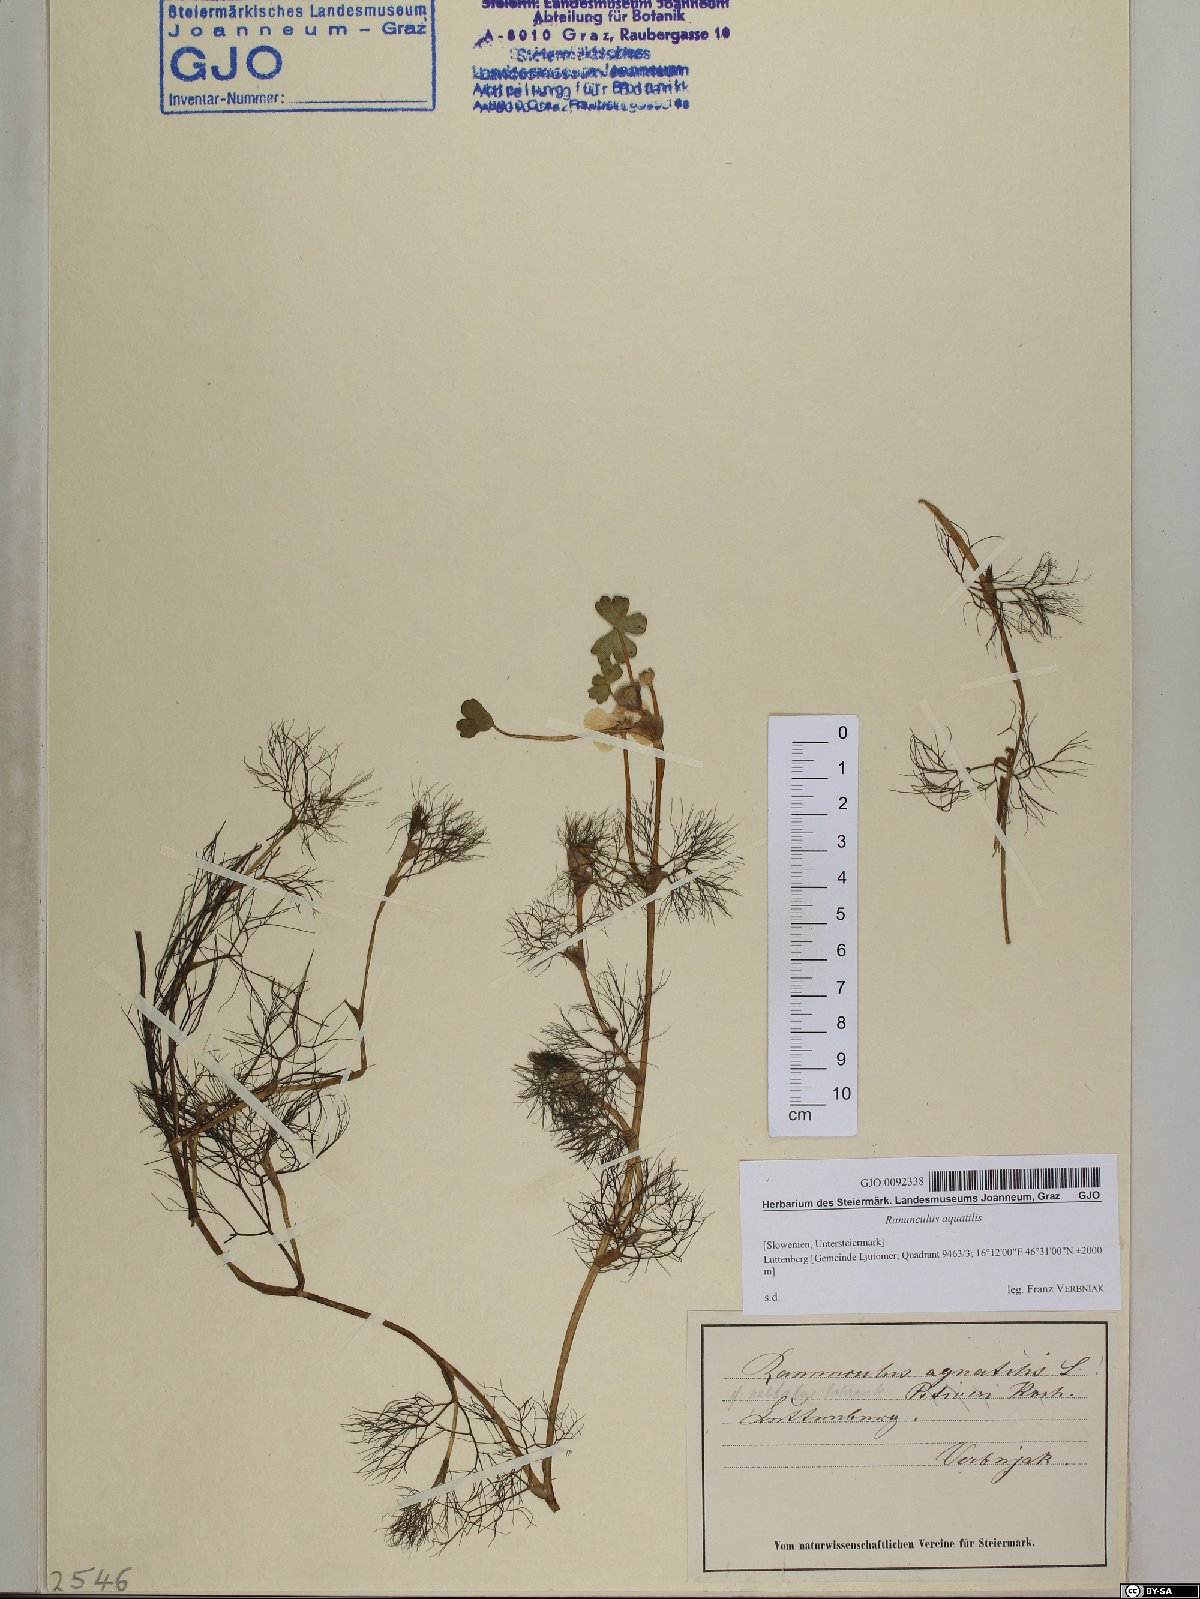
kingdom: Plantae
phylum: Tracheophyta
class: Magnoliopsida
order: Ranunculales
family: Ranunculaceae
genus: Ranunculus
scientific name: Ranunculus aquatilis
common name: Common water-crowfoot
